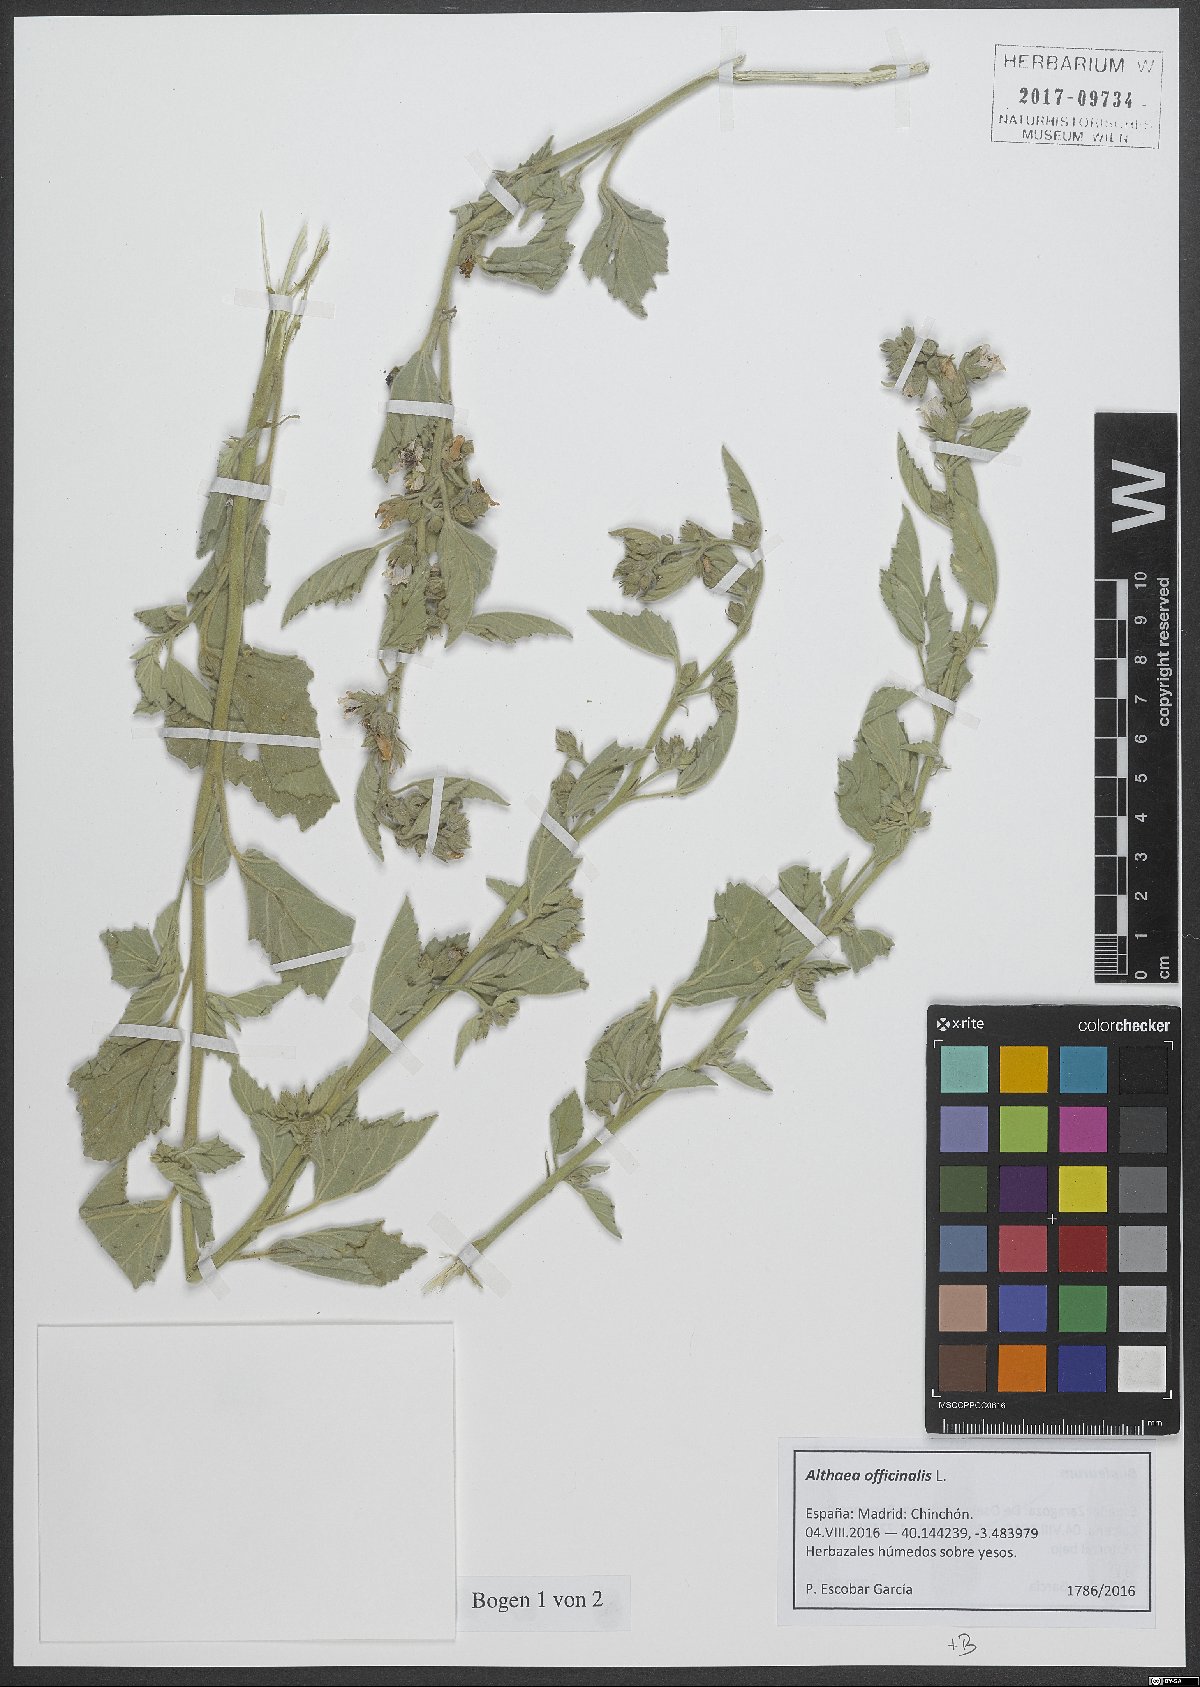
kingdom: Plantae
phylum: Tracheophyta
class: Magnoliopsida
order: Malvales
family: Malvaceae
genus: Althaea
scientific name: Althaea officinalis
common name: Marsh-mallow
